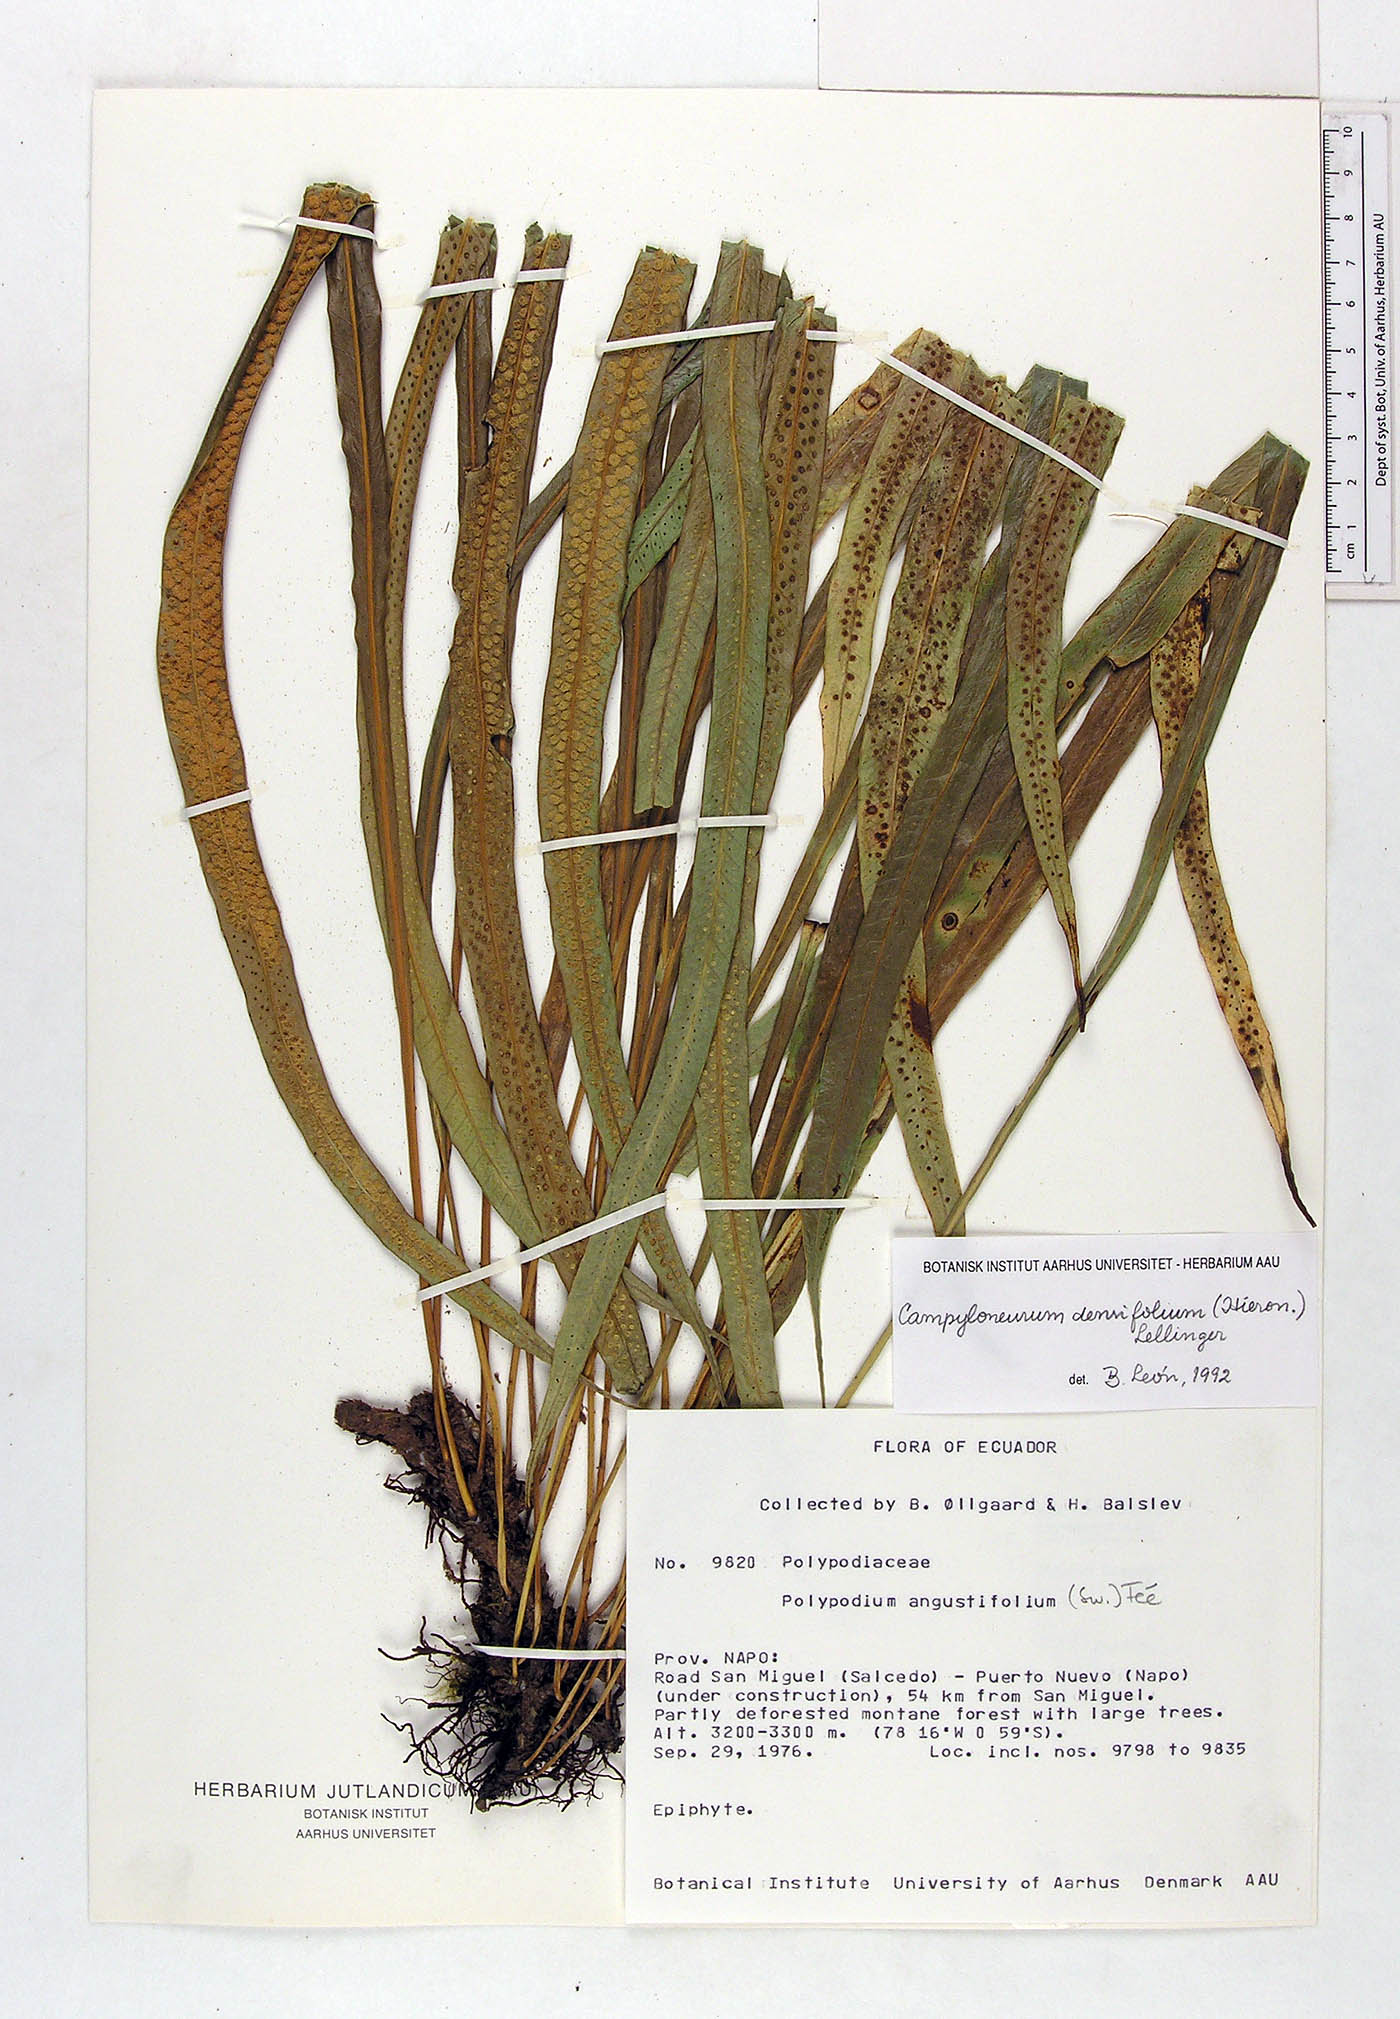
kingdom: Plantae
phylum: Tracheophyta
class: Polypodiopsida
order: Polypodiales
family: Polypodiaceae
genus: Campyloneurum
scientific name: Campyloneurum densifolium
